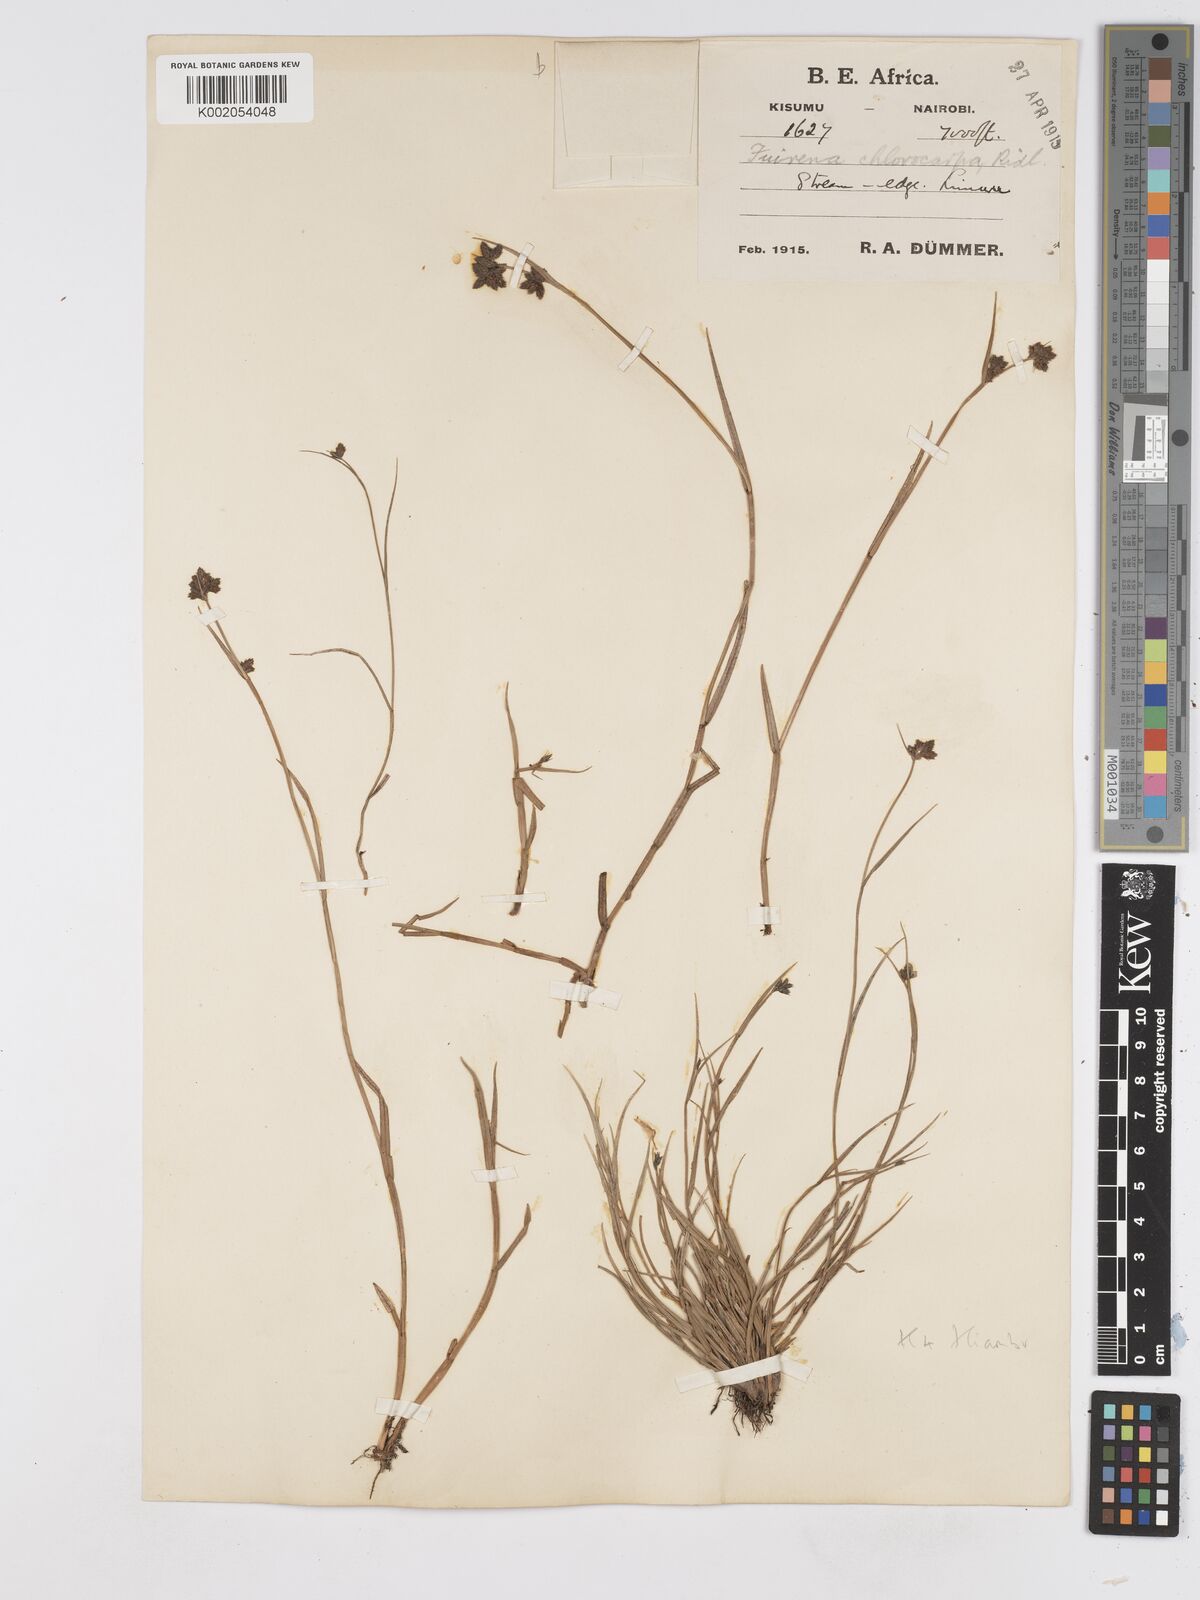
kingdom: Plantae
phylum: Tracheophyta
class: Liliopsida
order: Poales
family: Cyperaceae
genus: Fuirena
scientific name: Fuirena stricta
